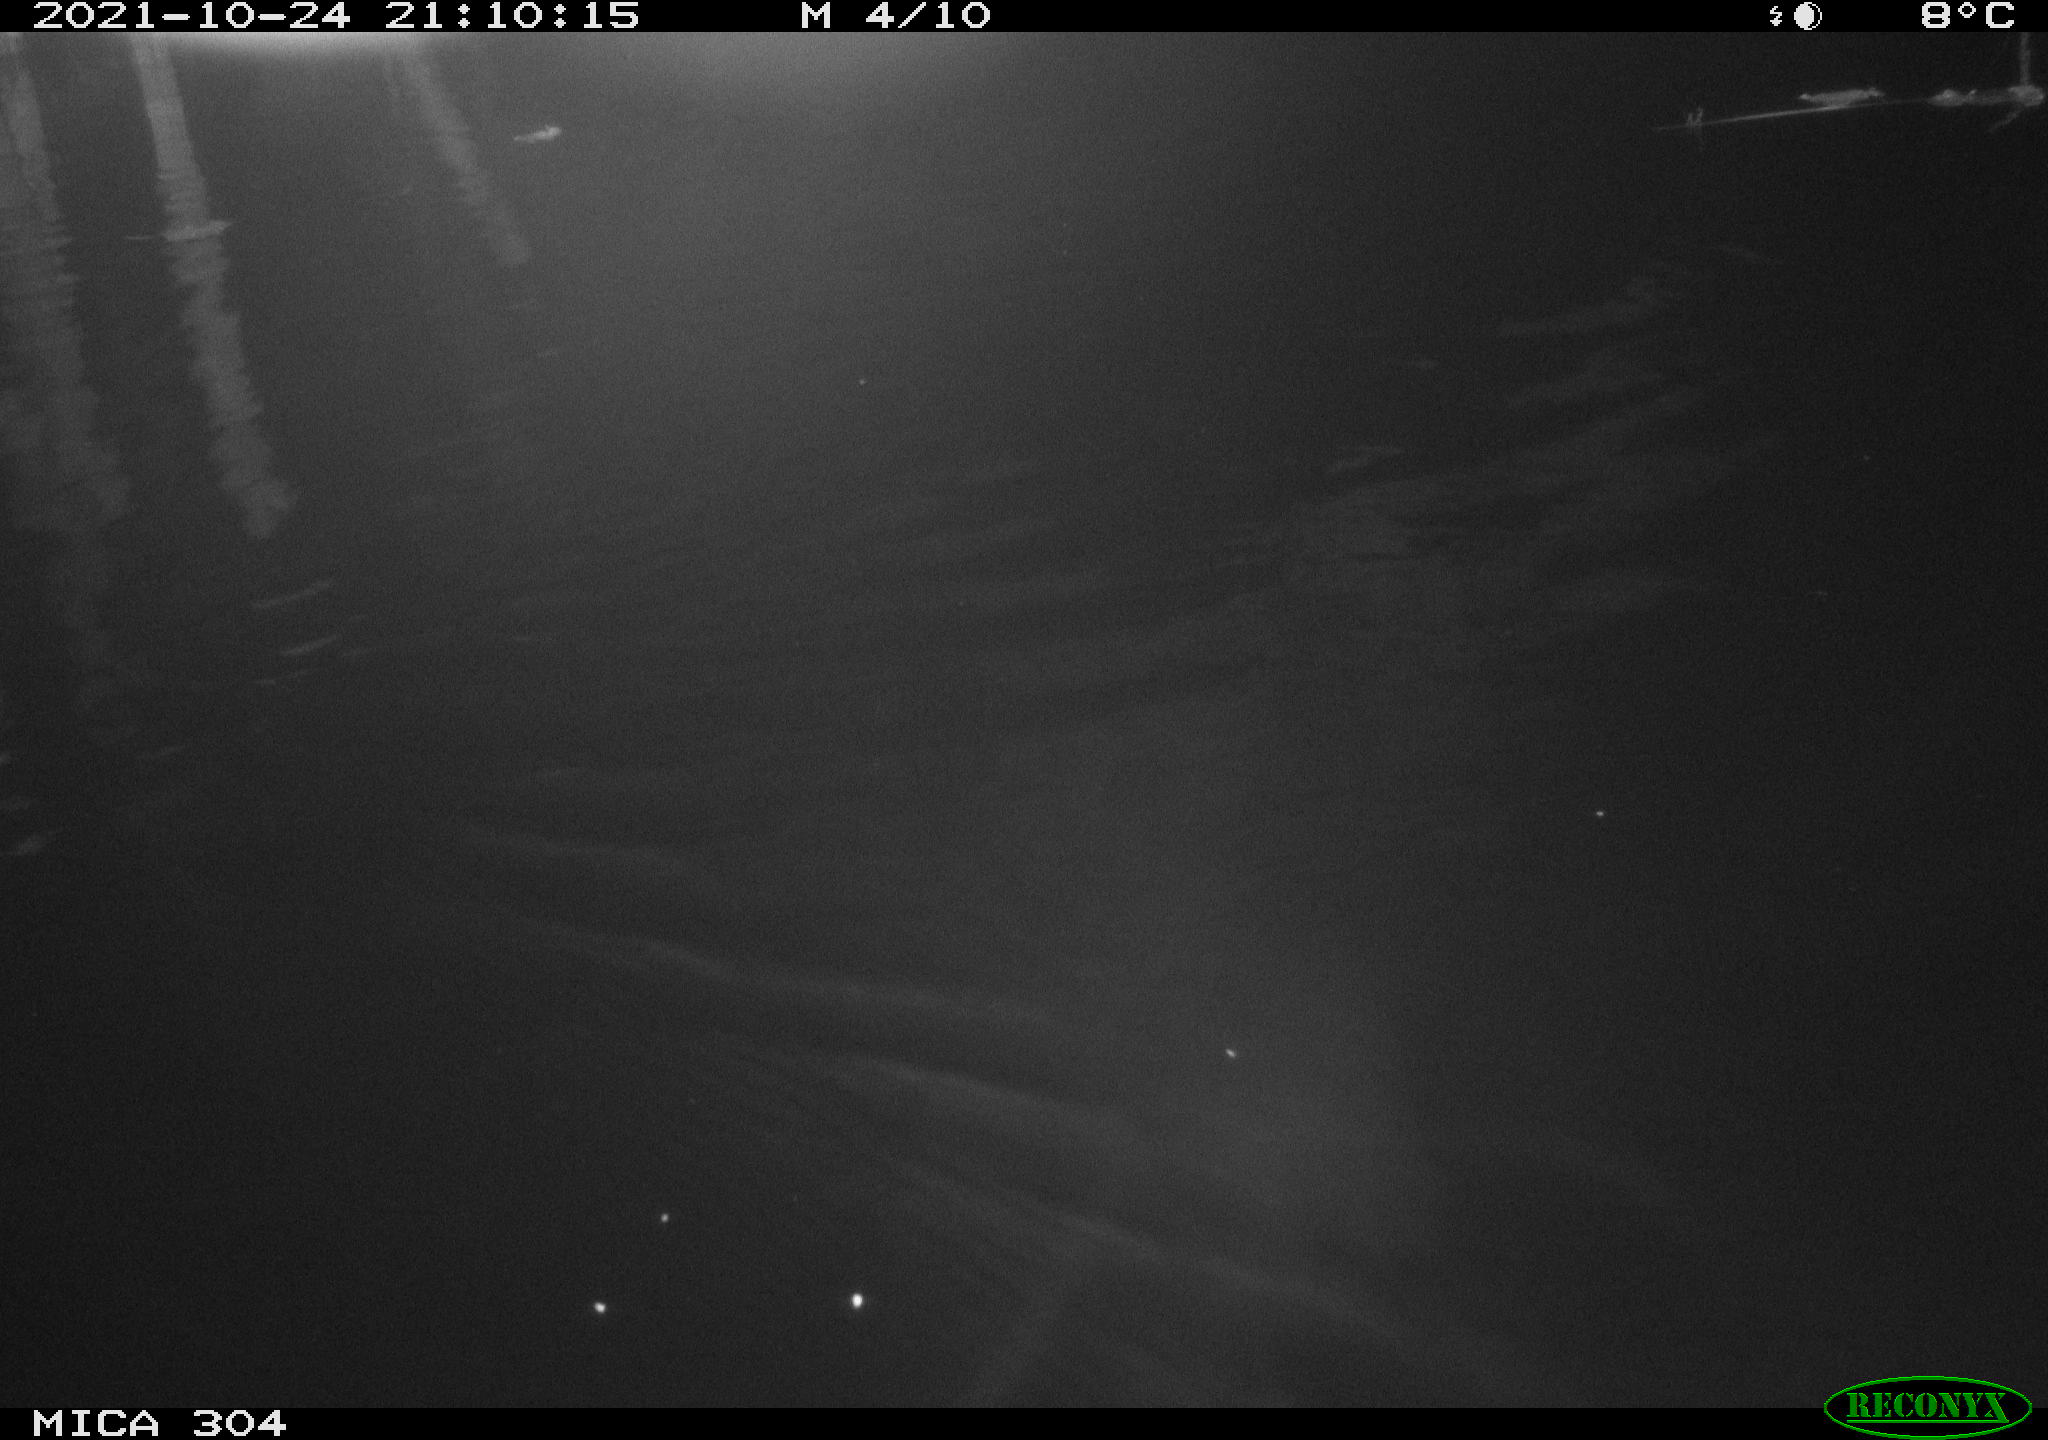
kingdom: Animalia
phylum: Chordata
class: Mammalia
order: Rodentia
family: Cricetidae
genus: Ondatra
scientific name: Ondatra zibethicus
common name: Muskrat
